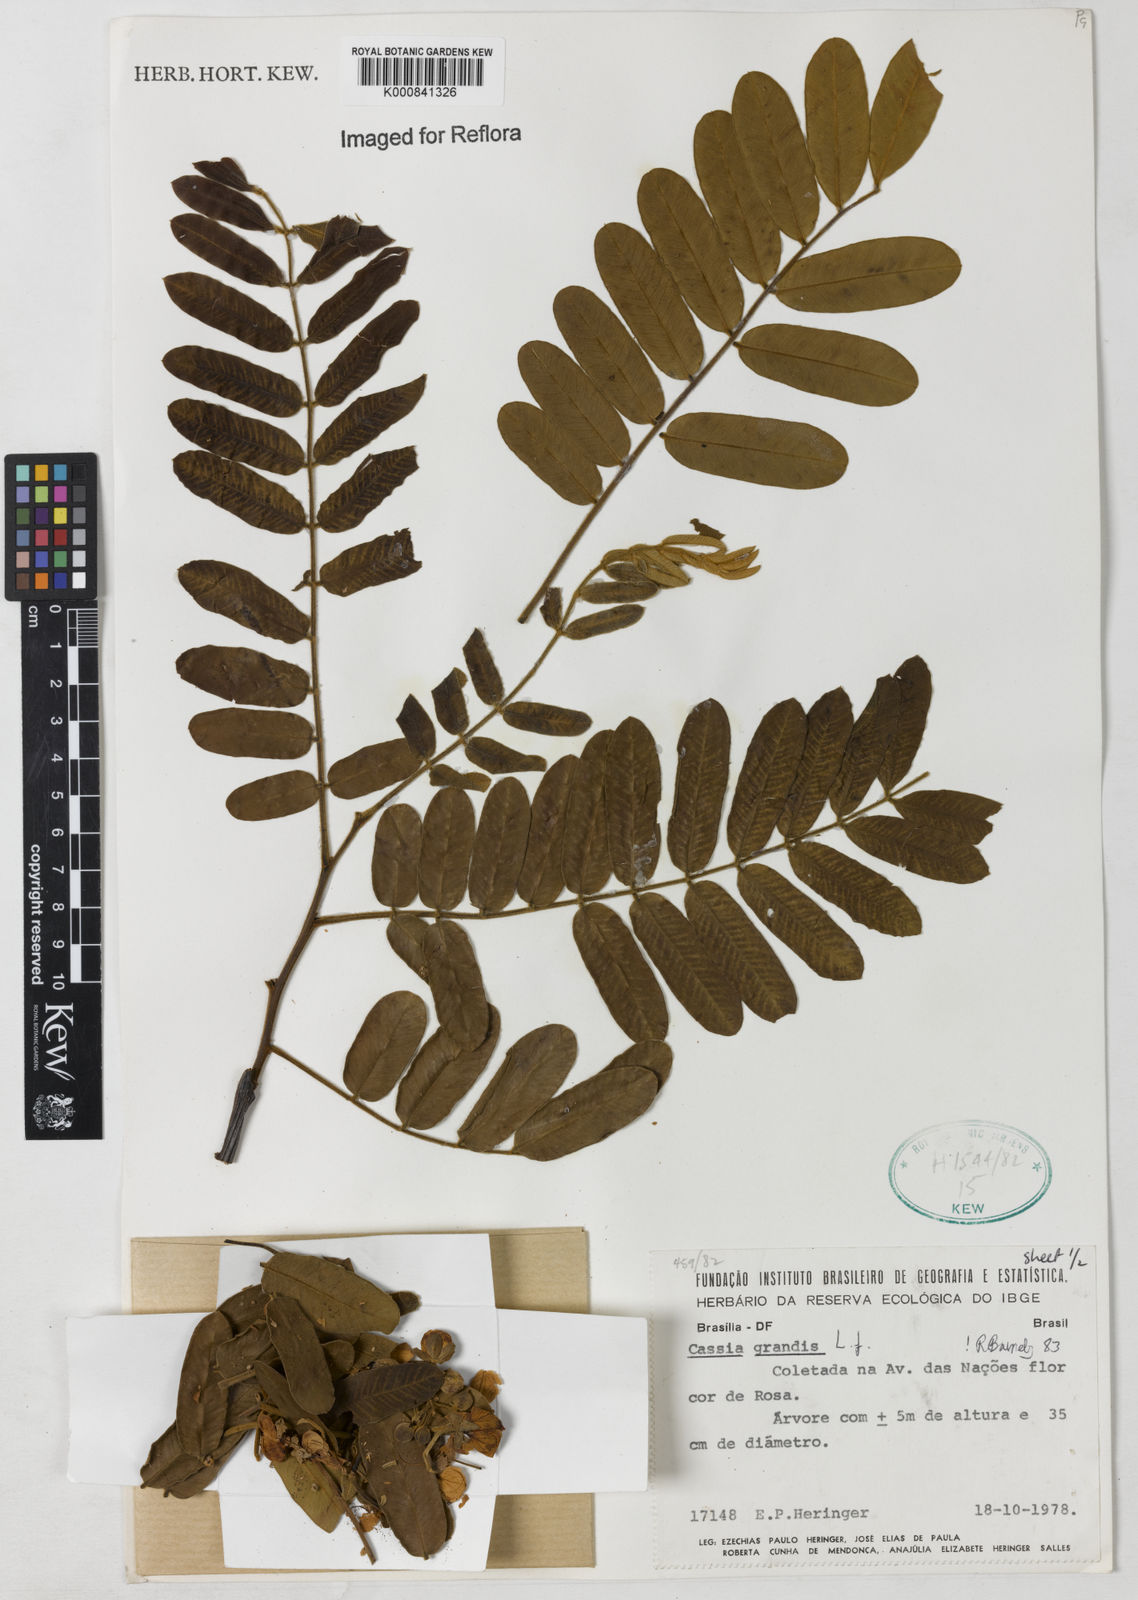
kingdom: Plantae
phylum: Tracheophyta
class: Magnoliopsida
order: Fabales
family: Fabaceae
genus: Cassia
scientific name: Cassia grandis
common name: Appleblossom cassia
